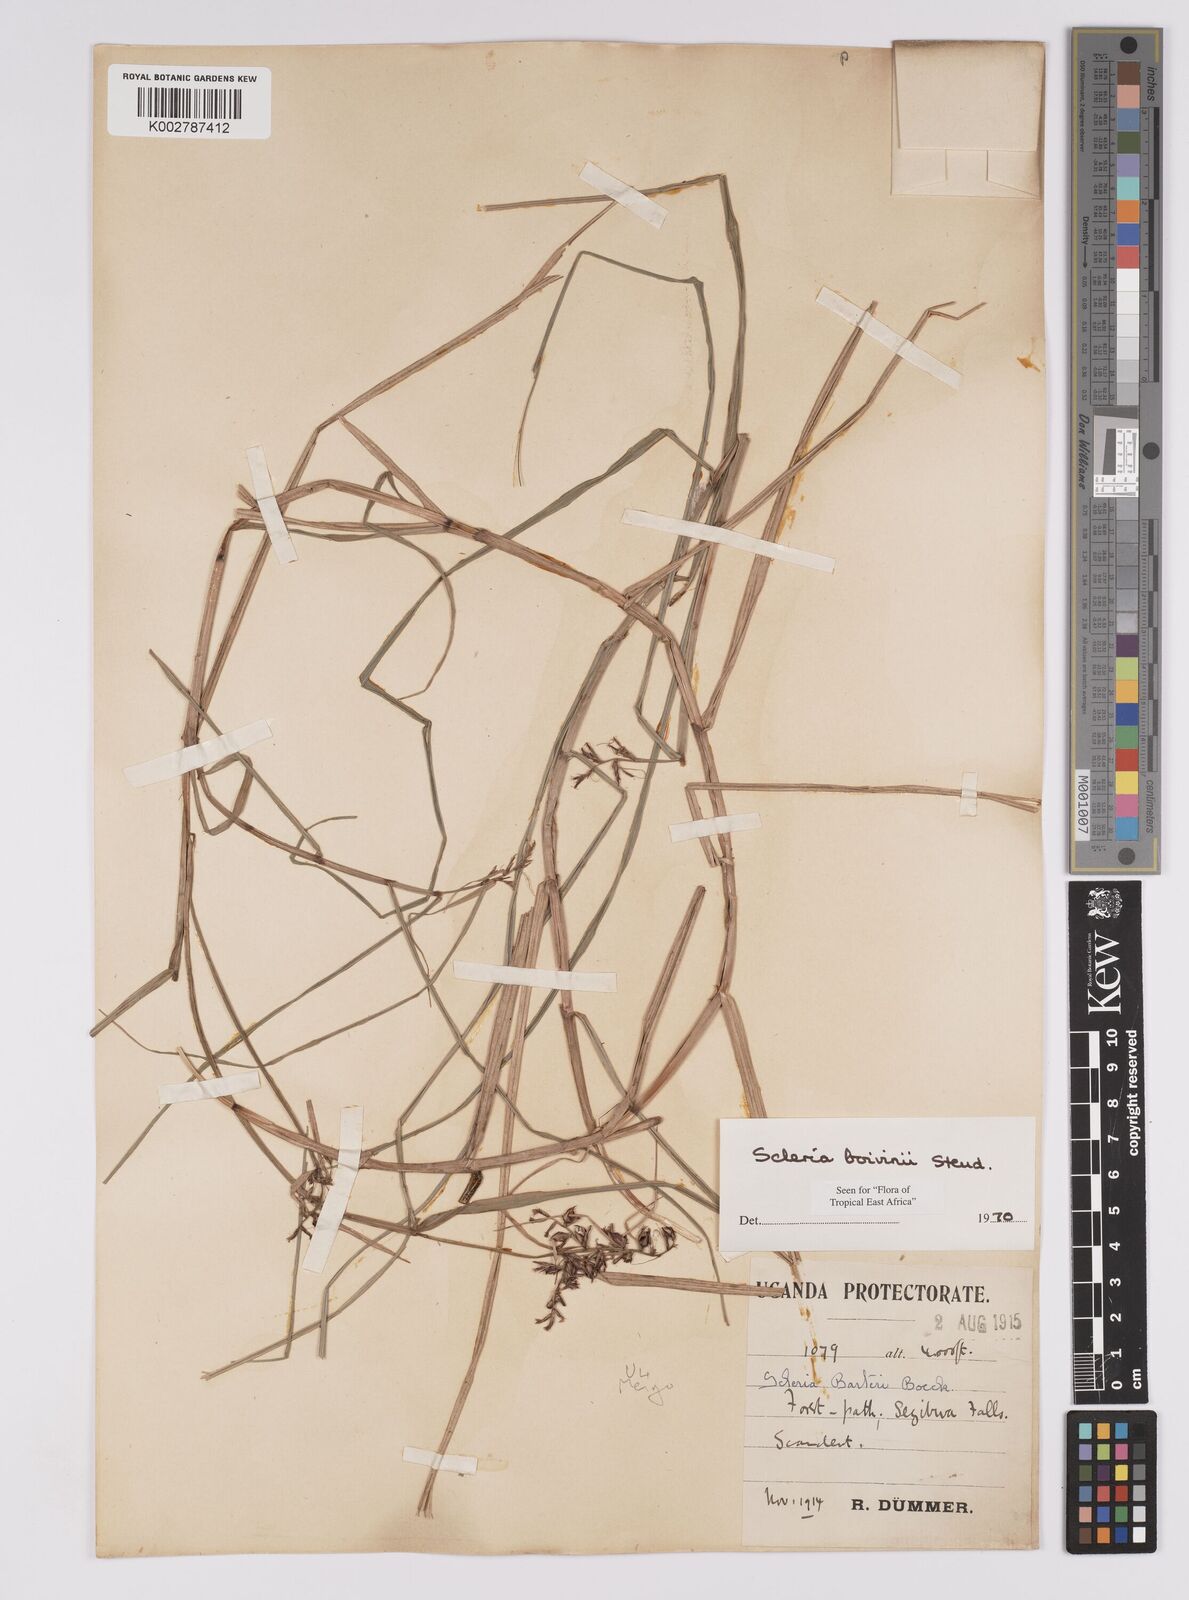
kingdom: Plantae
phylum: Tracheophyta
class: Liliopsida
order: Poales
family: Cyperaceae
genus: Scleria
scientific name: Scleria boivinii
